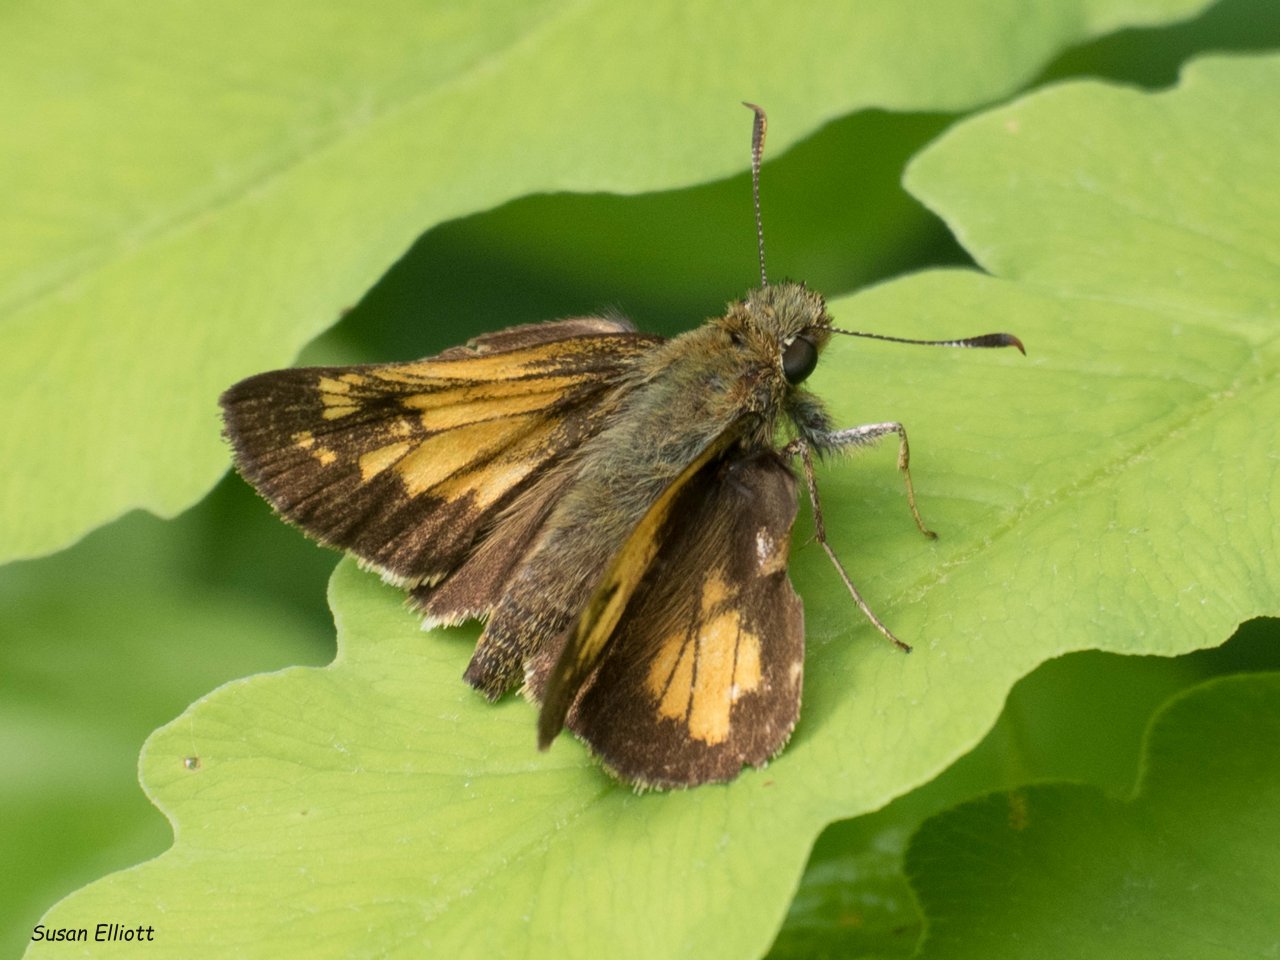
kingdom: Animalia
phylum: Arthropoda
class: Insecta
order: Lepidoptera
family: Hesperiidae
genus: Lon
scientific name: Lon hobomok
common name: Hobomok Skipper
